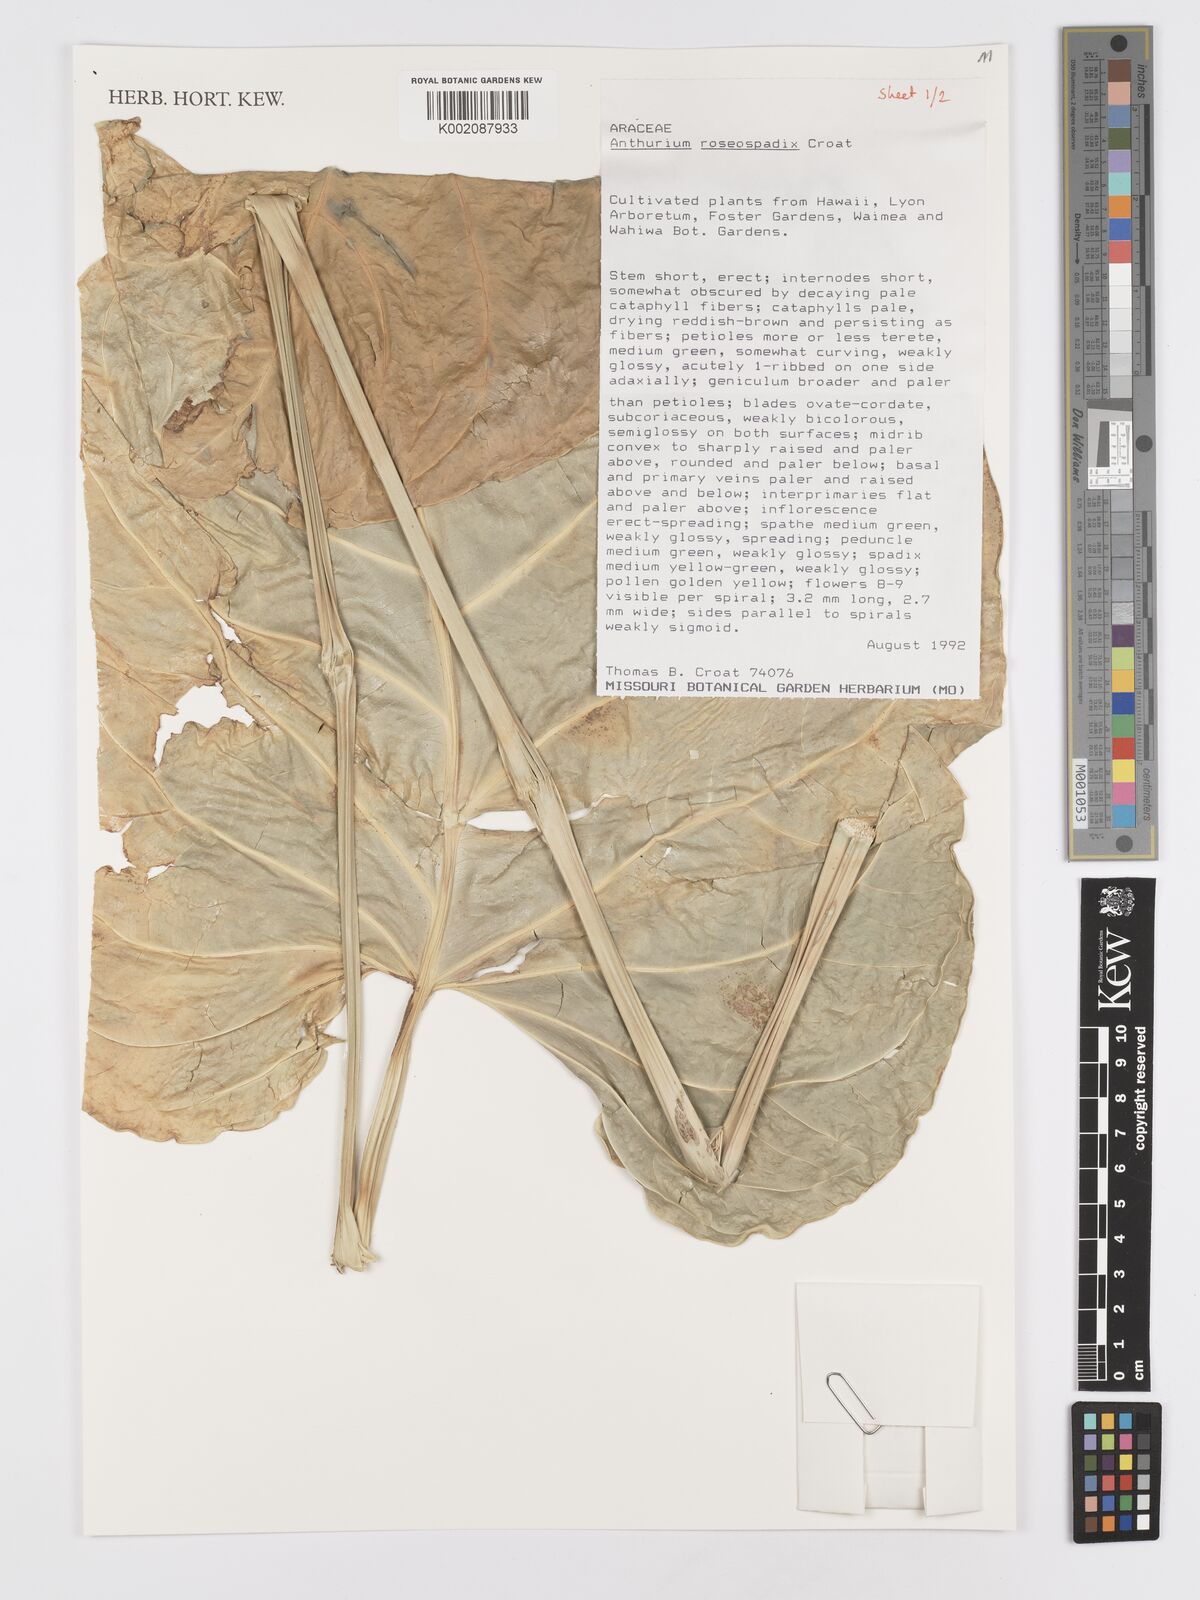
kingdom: Plantae
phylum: Tracheophyta
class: Liliopsida
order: Alismatales
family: Araceae
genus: Anthurium
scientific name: Anthurium roseospadix
